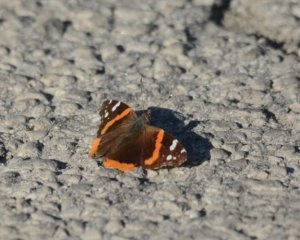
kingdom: Animalia
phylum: Arthropoda
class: Insecta
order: Lepidoptera
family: Nymphalidae
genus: Vanessa
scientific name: Vanessa atalanta
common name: Red Admiral
